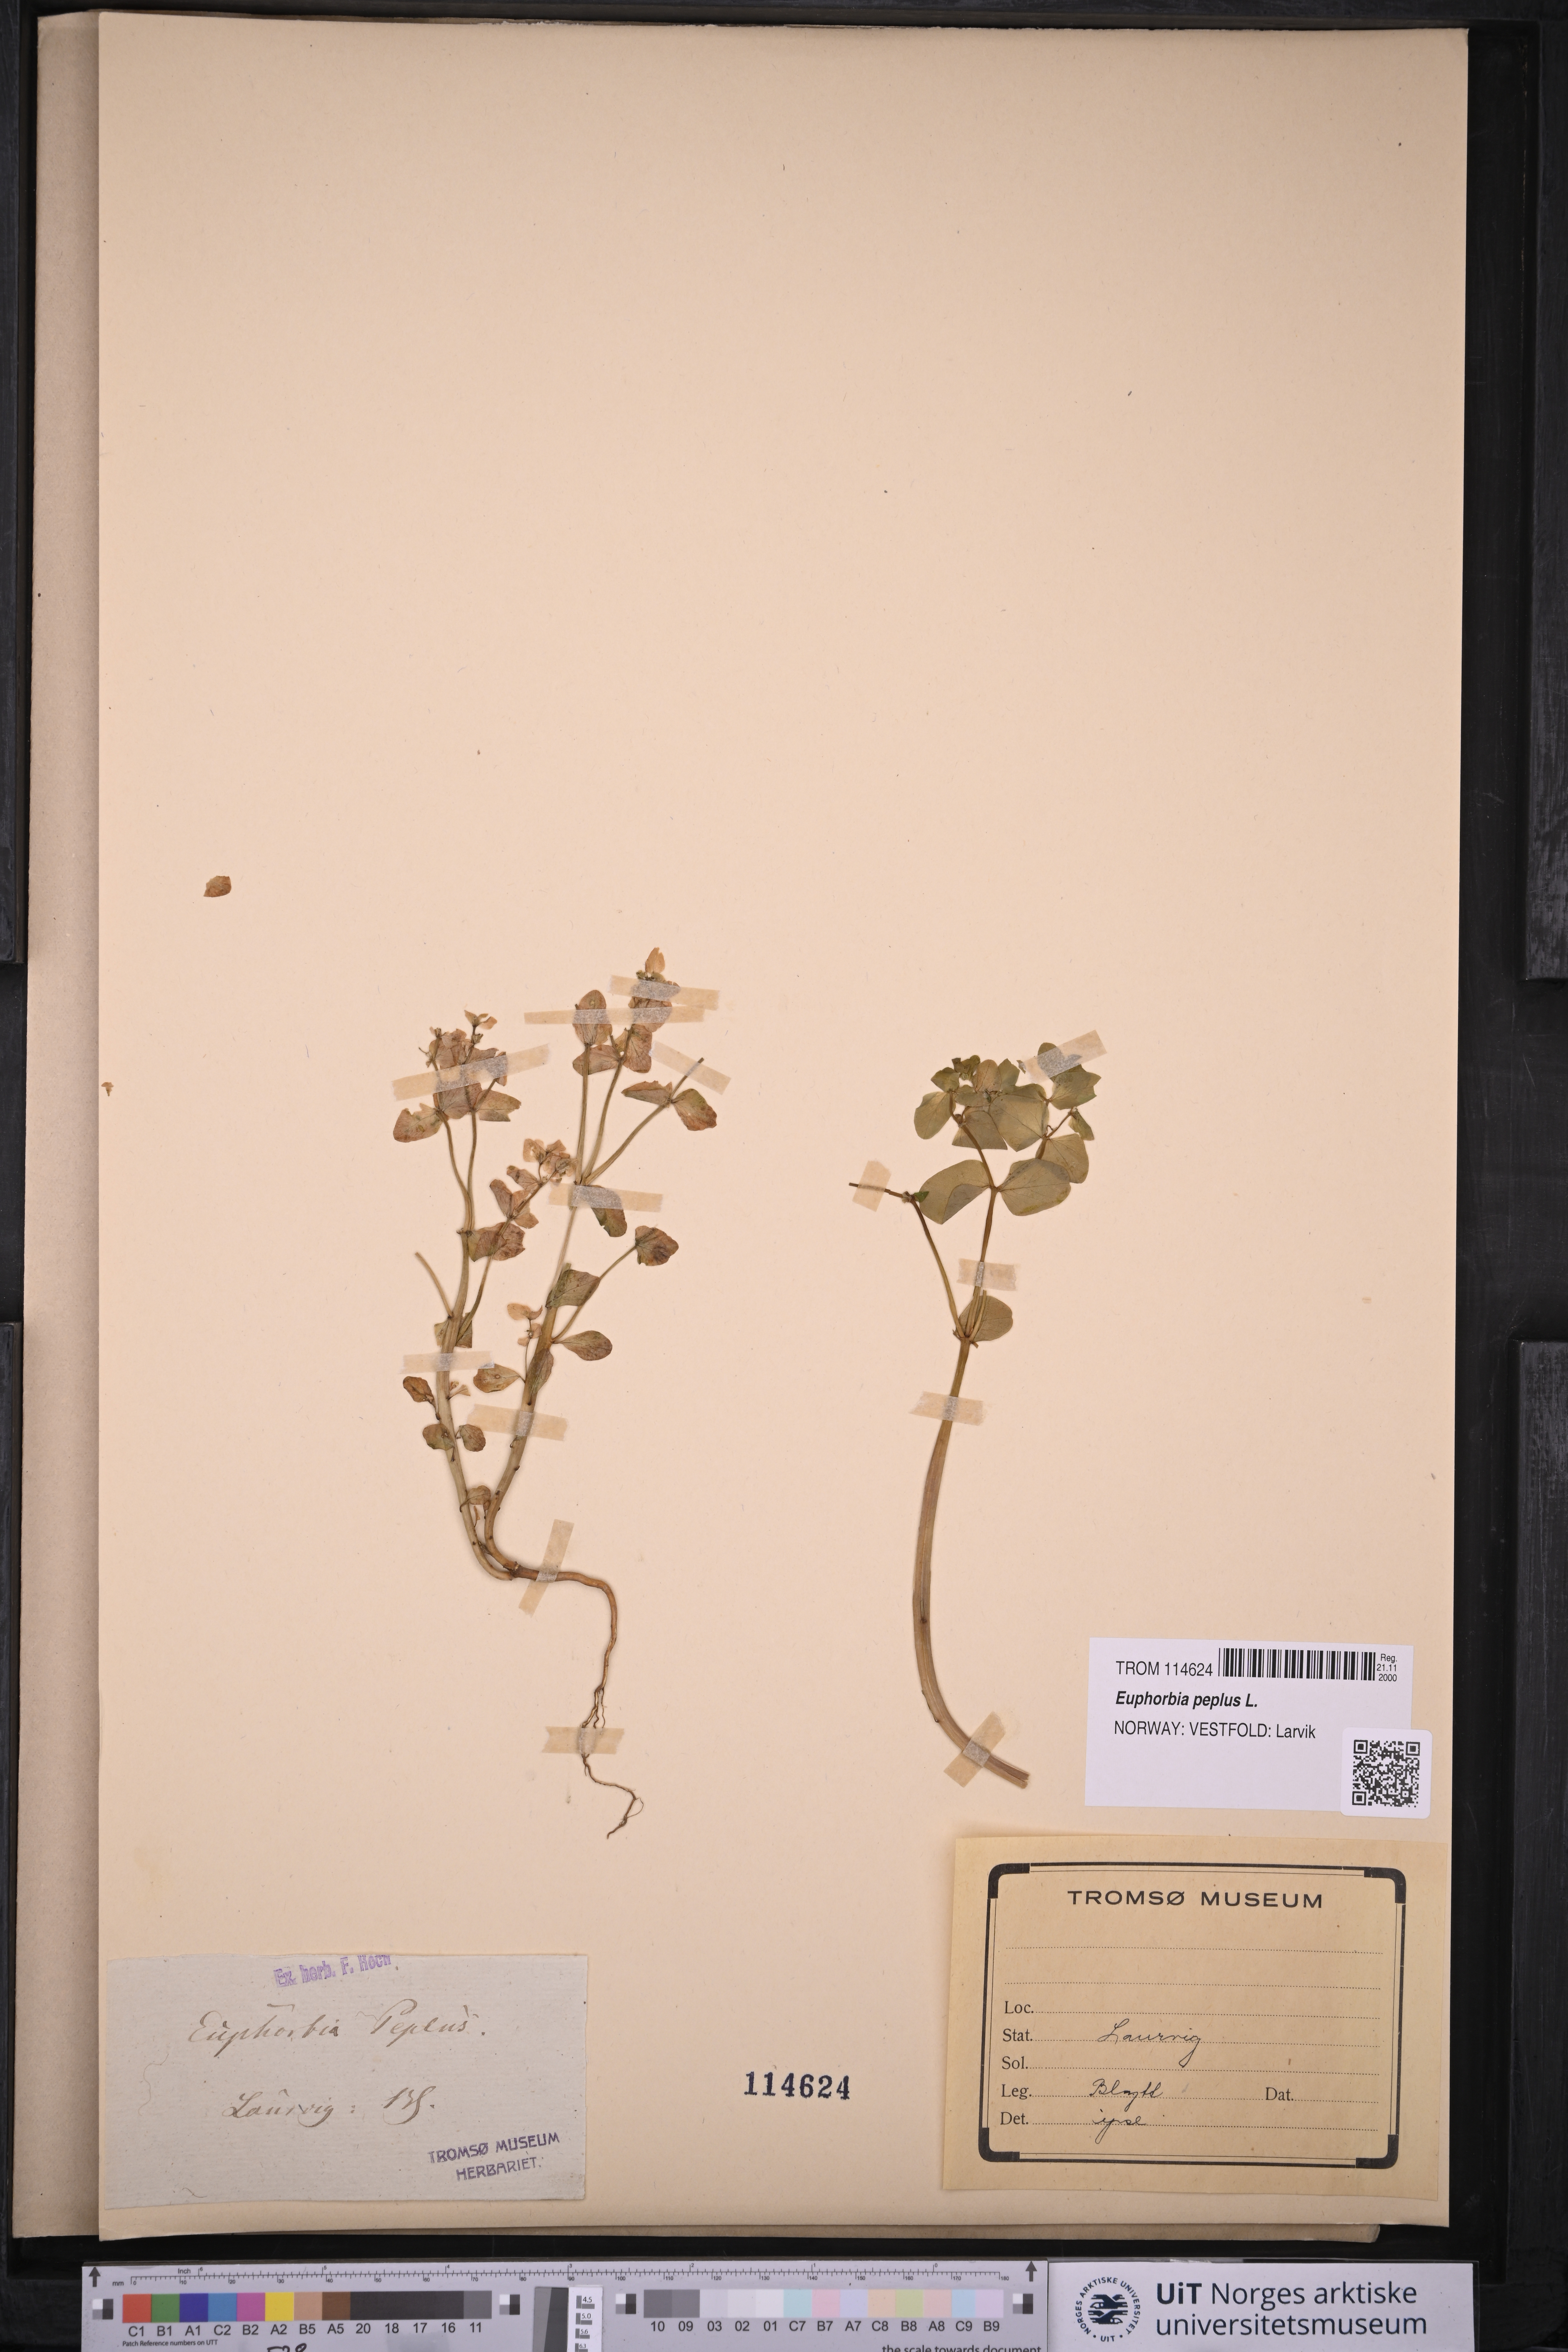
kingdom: Plantae
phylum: Tracheophyta
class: Magnoliopsida
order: Malpighiales
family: Euphorbiaceae
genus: Euphorbia
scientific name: Euphorbia peplus
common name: Petty spurge
